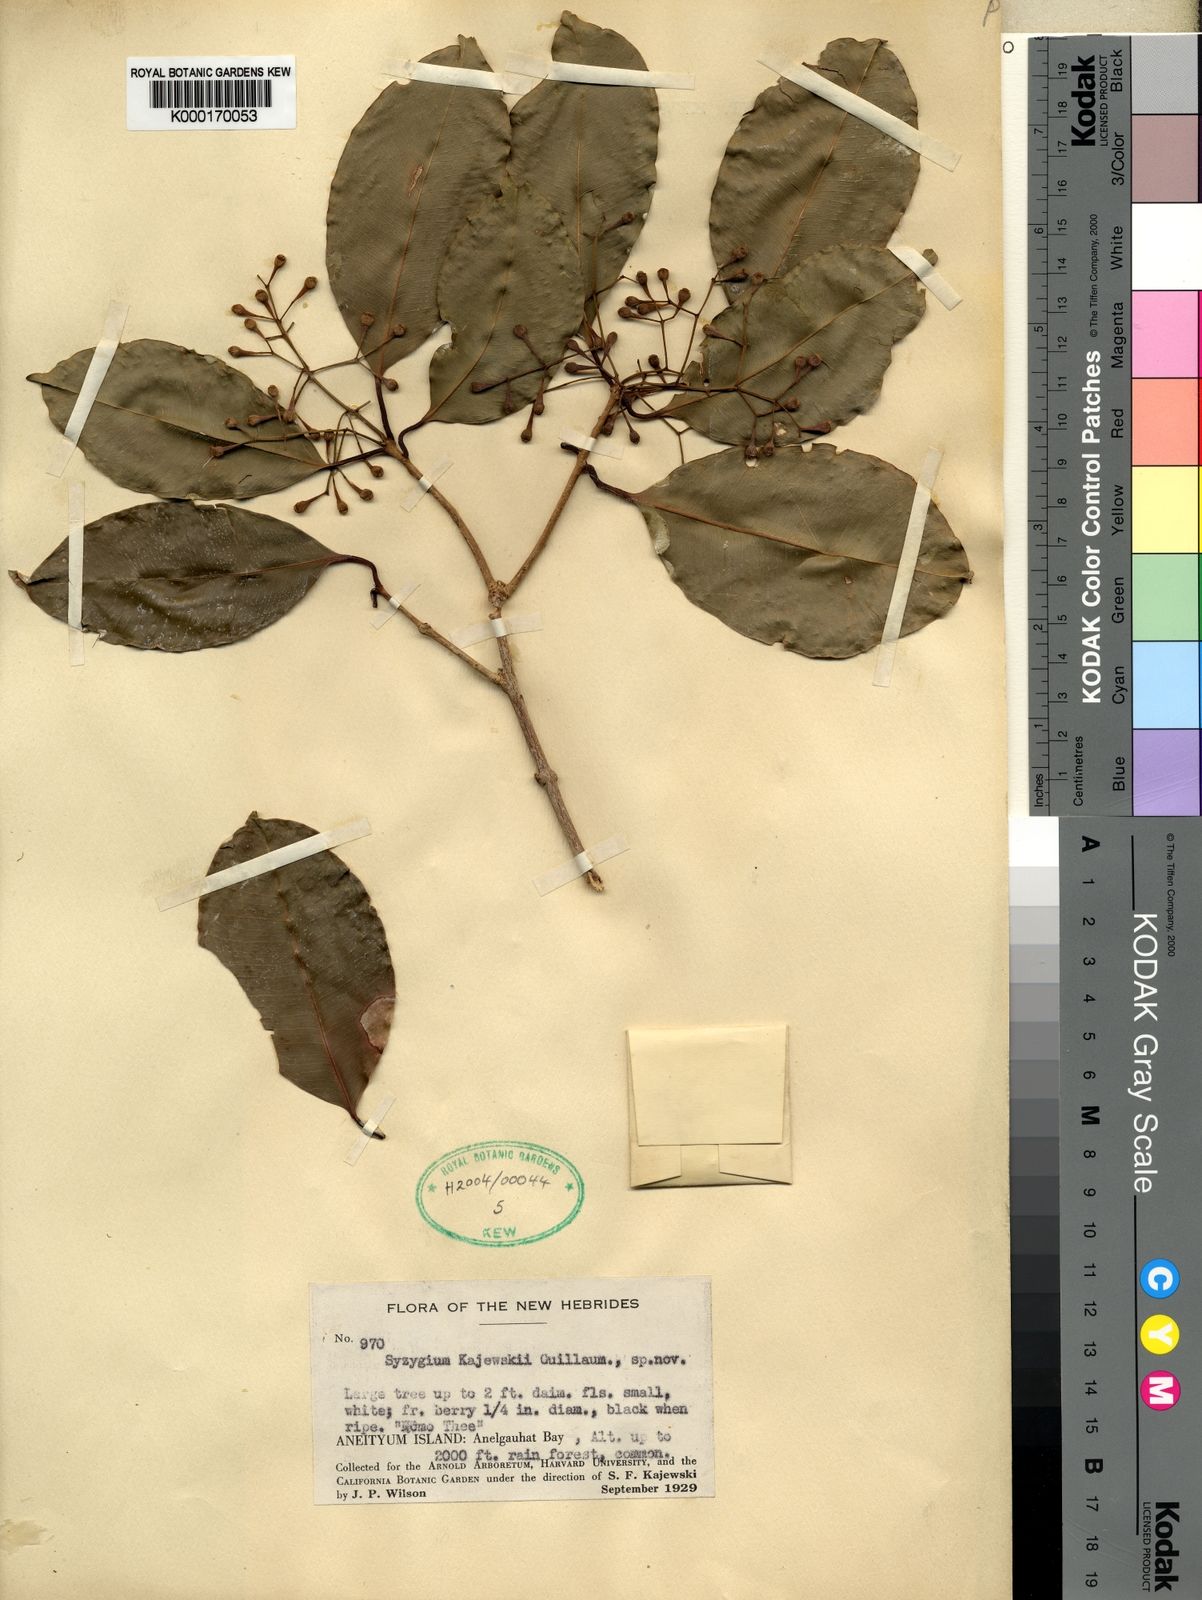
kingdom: Plantae
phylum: Tracheophyta
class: Magnoliopsida
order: Myrtales
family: Myrtaceae
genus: Syzygium
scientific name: Syzygium kajewskii
